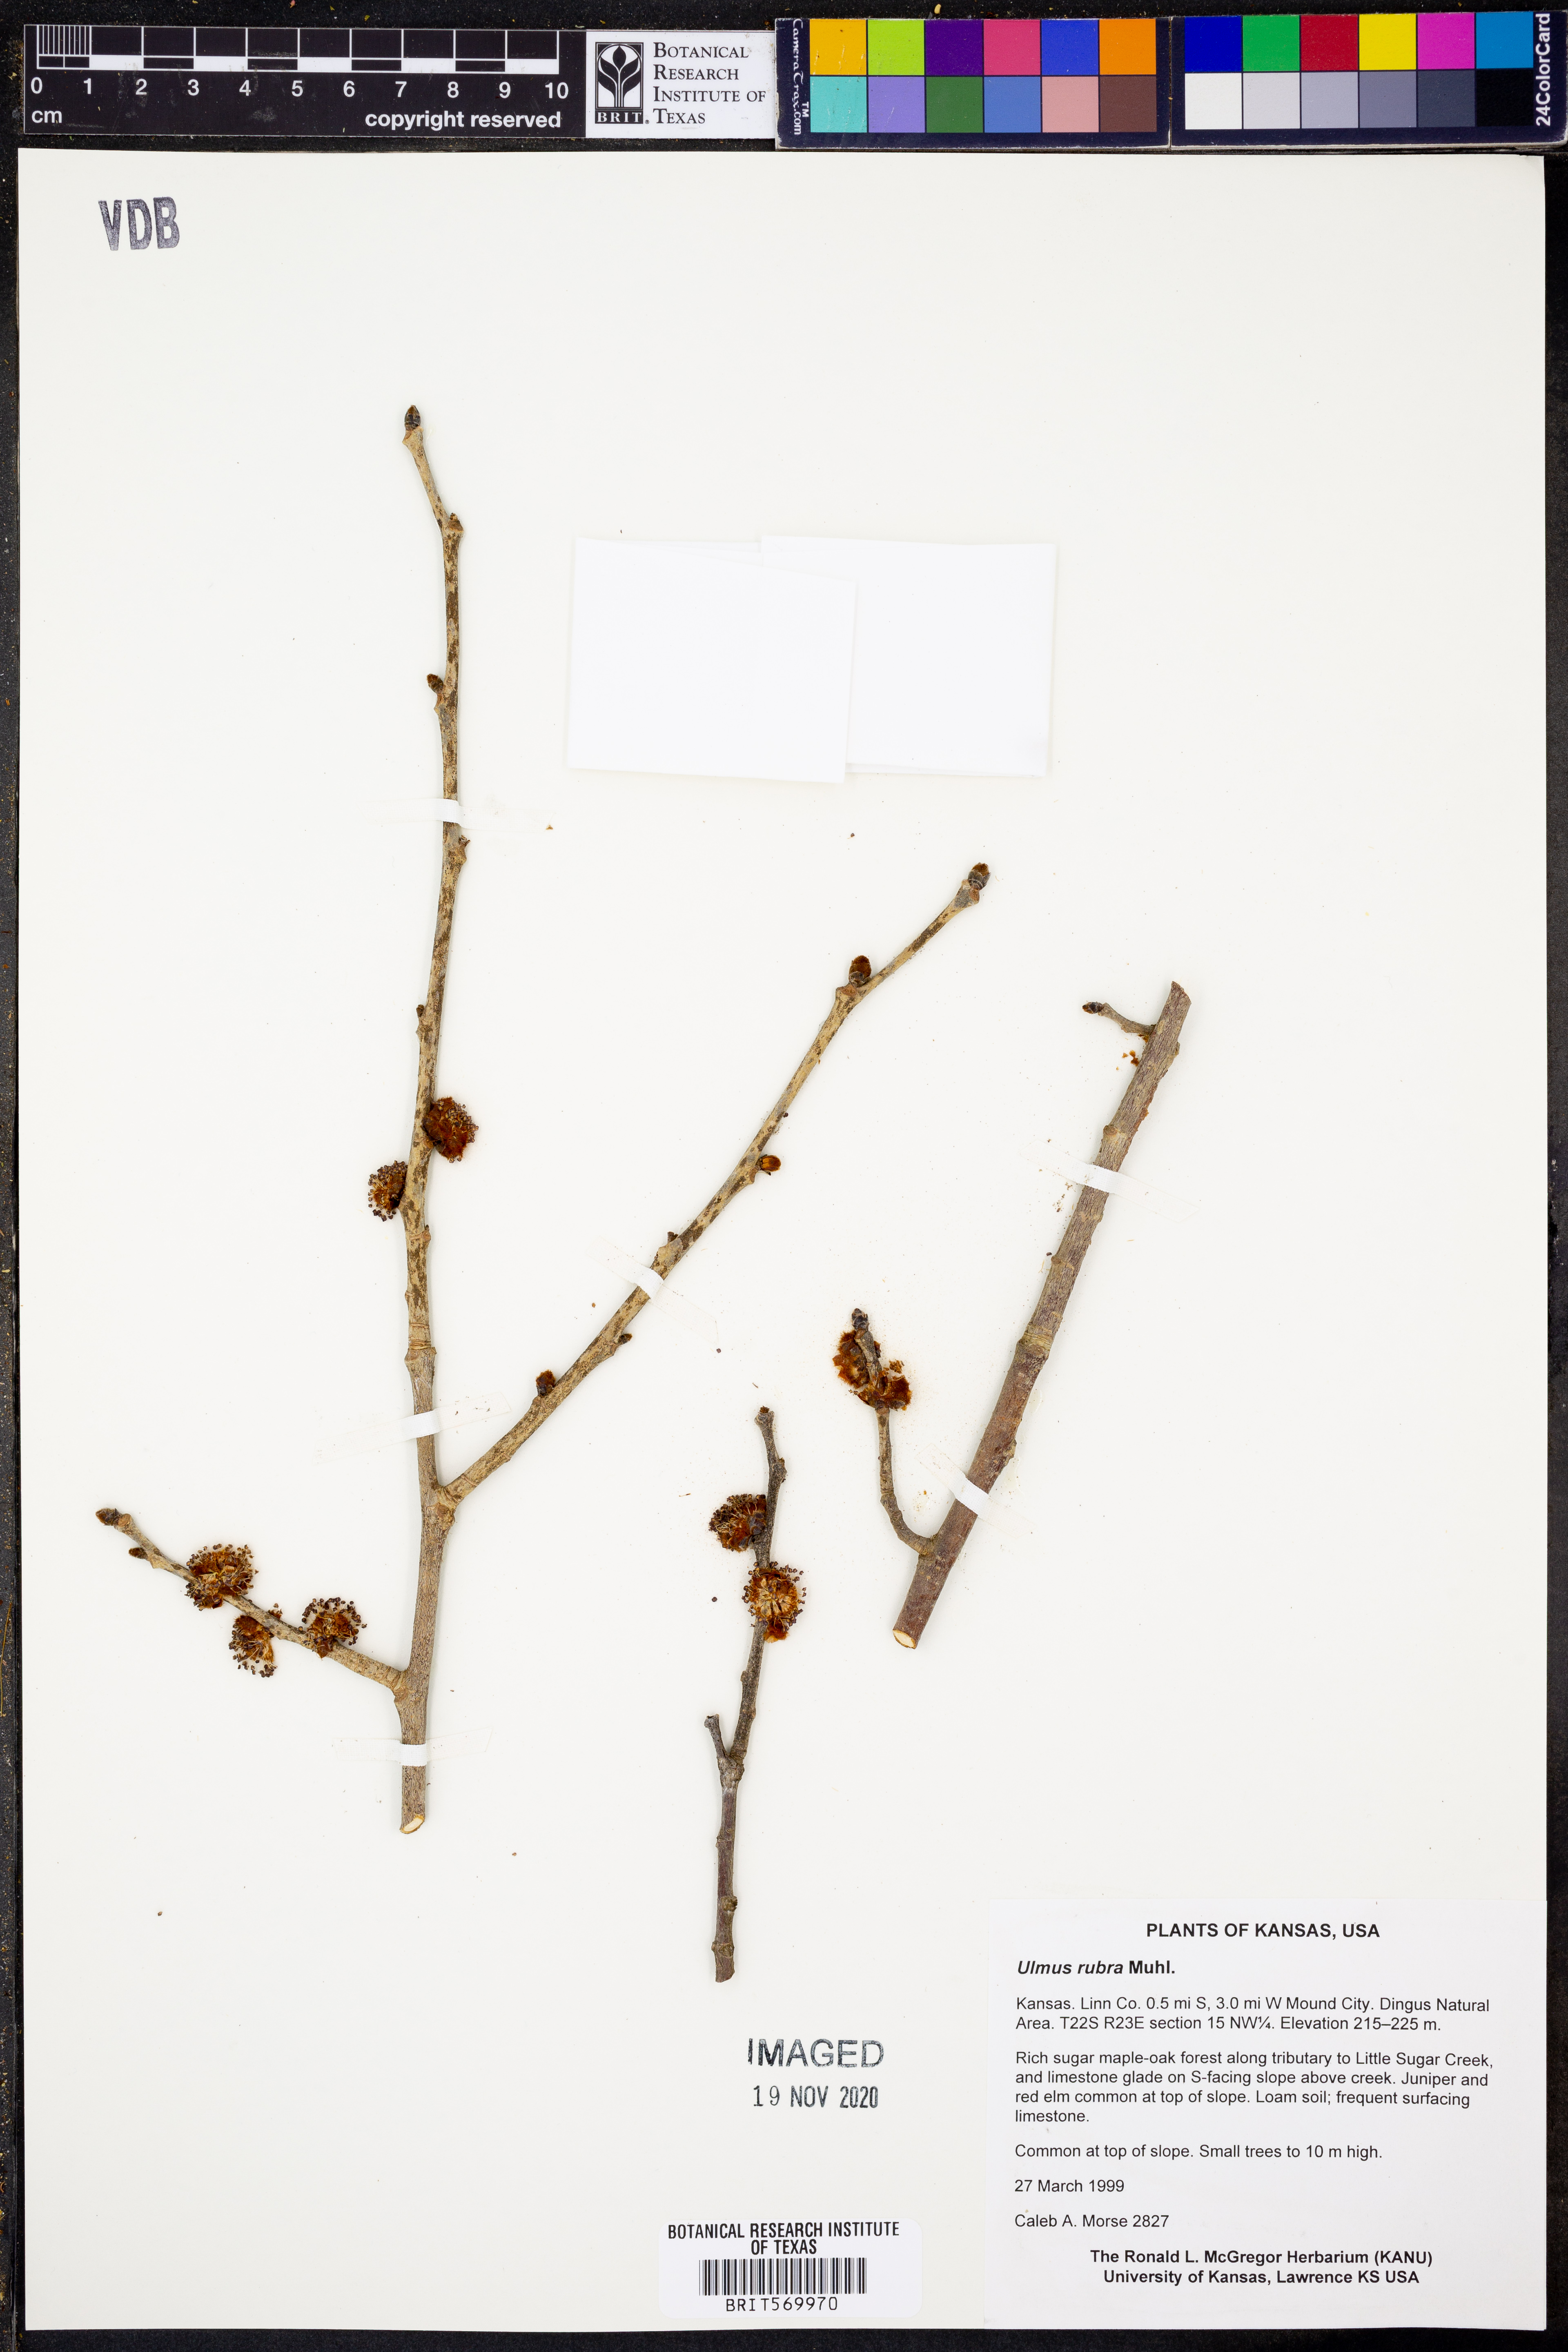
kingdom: Plantae
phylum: Tracheophyta
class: Magnoliopsida
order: Rosales
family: Ulmaceae
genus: Ulmus
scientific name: Ulmus rubra
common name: Slippery elm
